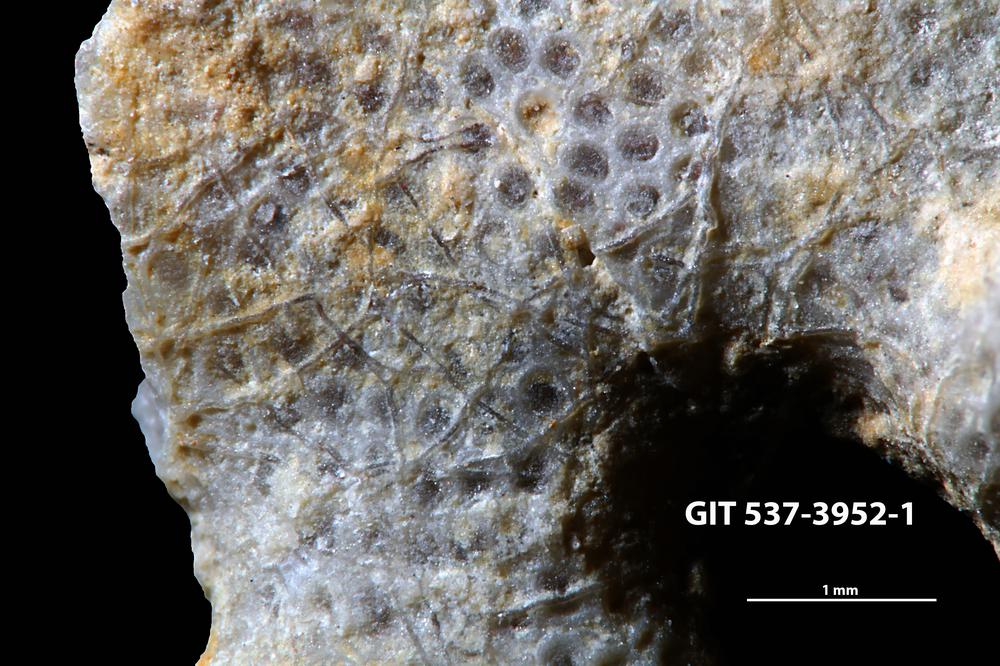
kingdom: Animalia
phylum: Bryozoa
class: Stenolaemata
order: Cyclostomatida
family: Corynotrypidae
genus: Corynotrypa
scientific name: Corynotrypa
